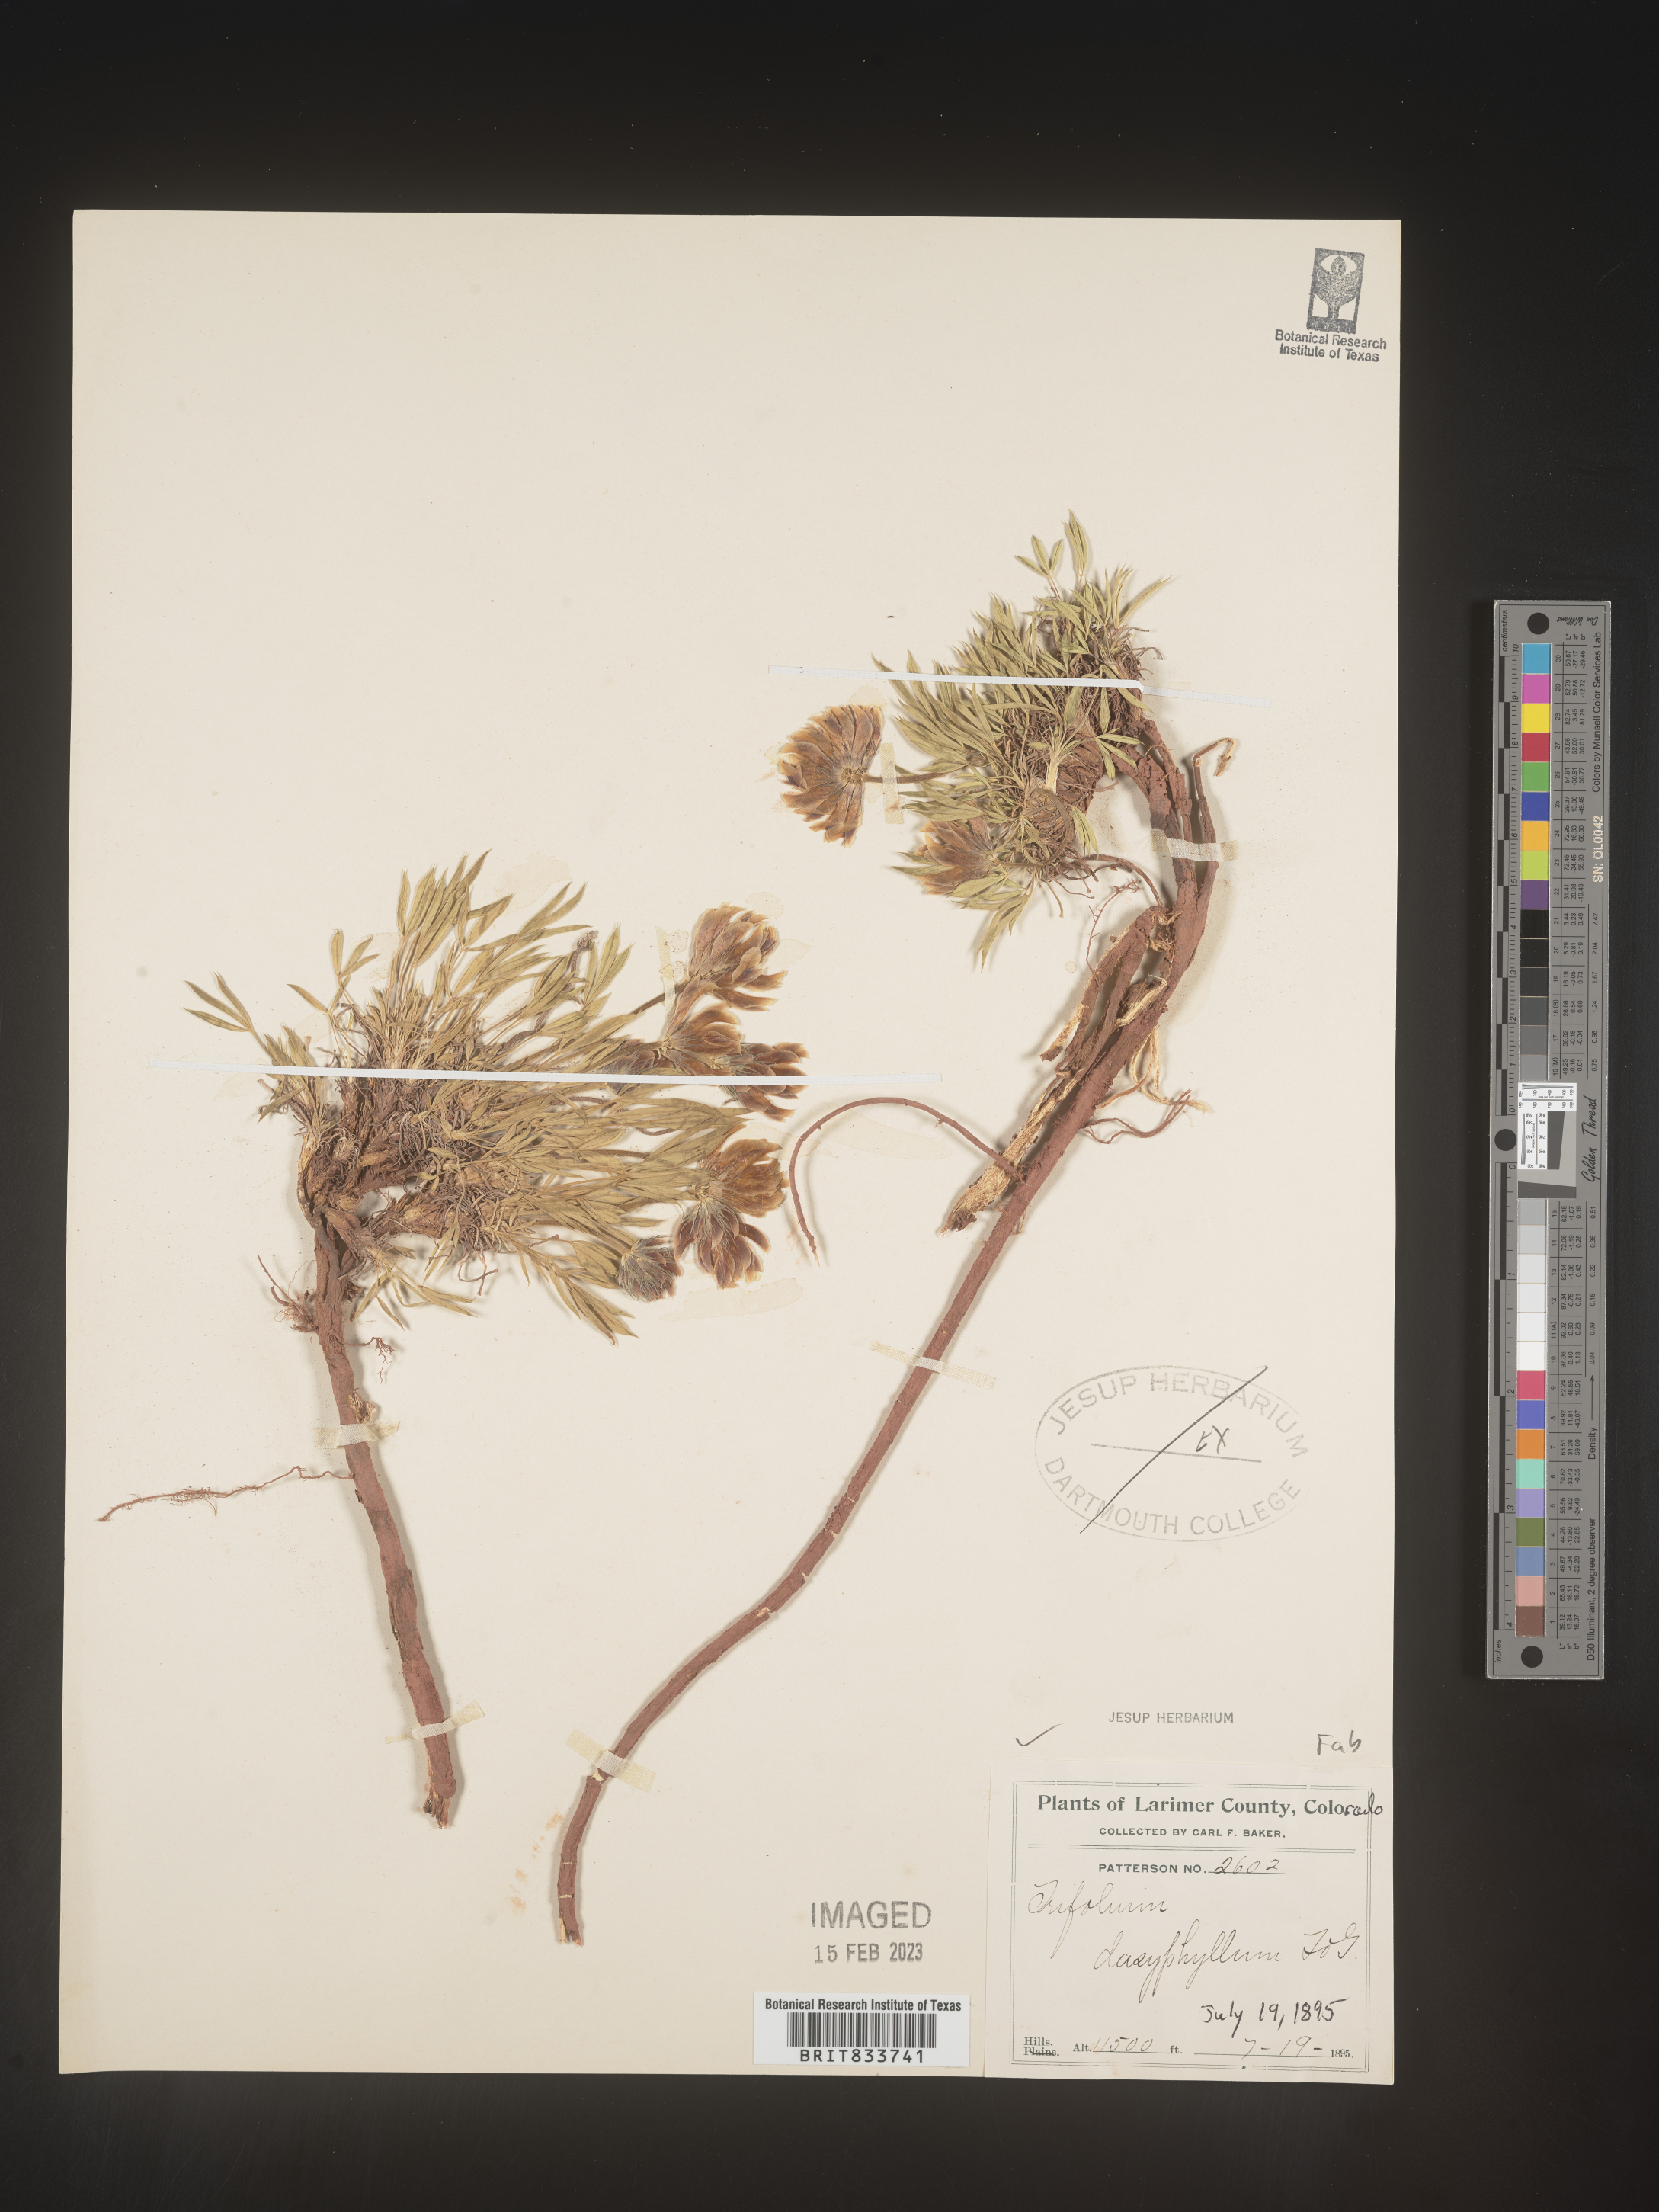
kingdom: Plantae
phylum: Tracheophyta
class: Magnoliopsida
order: Fabales
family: Fabaceae
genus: Trifolium
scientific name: Trifolium
